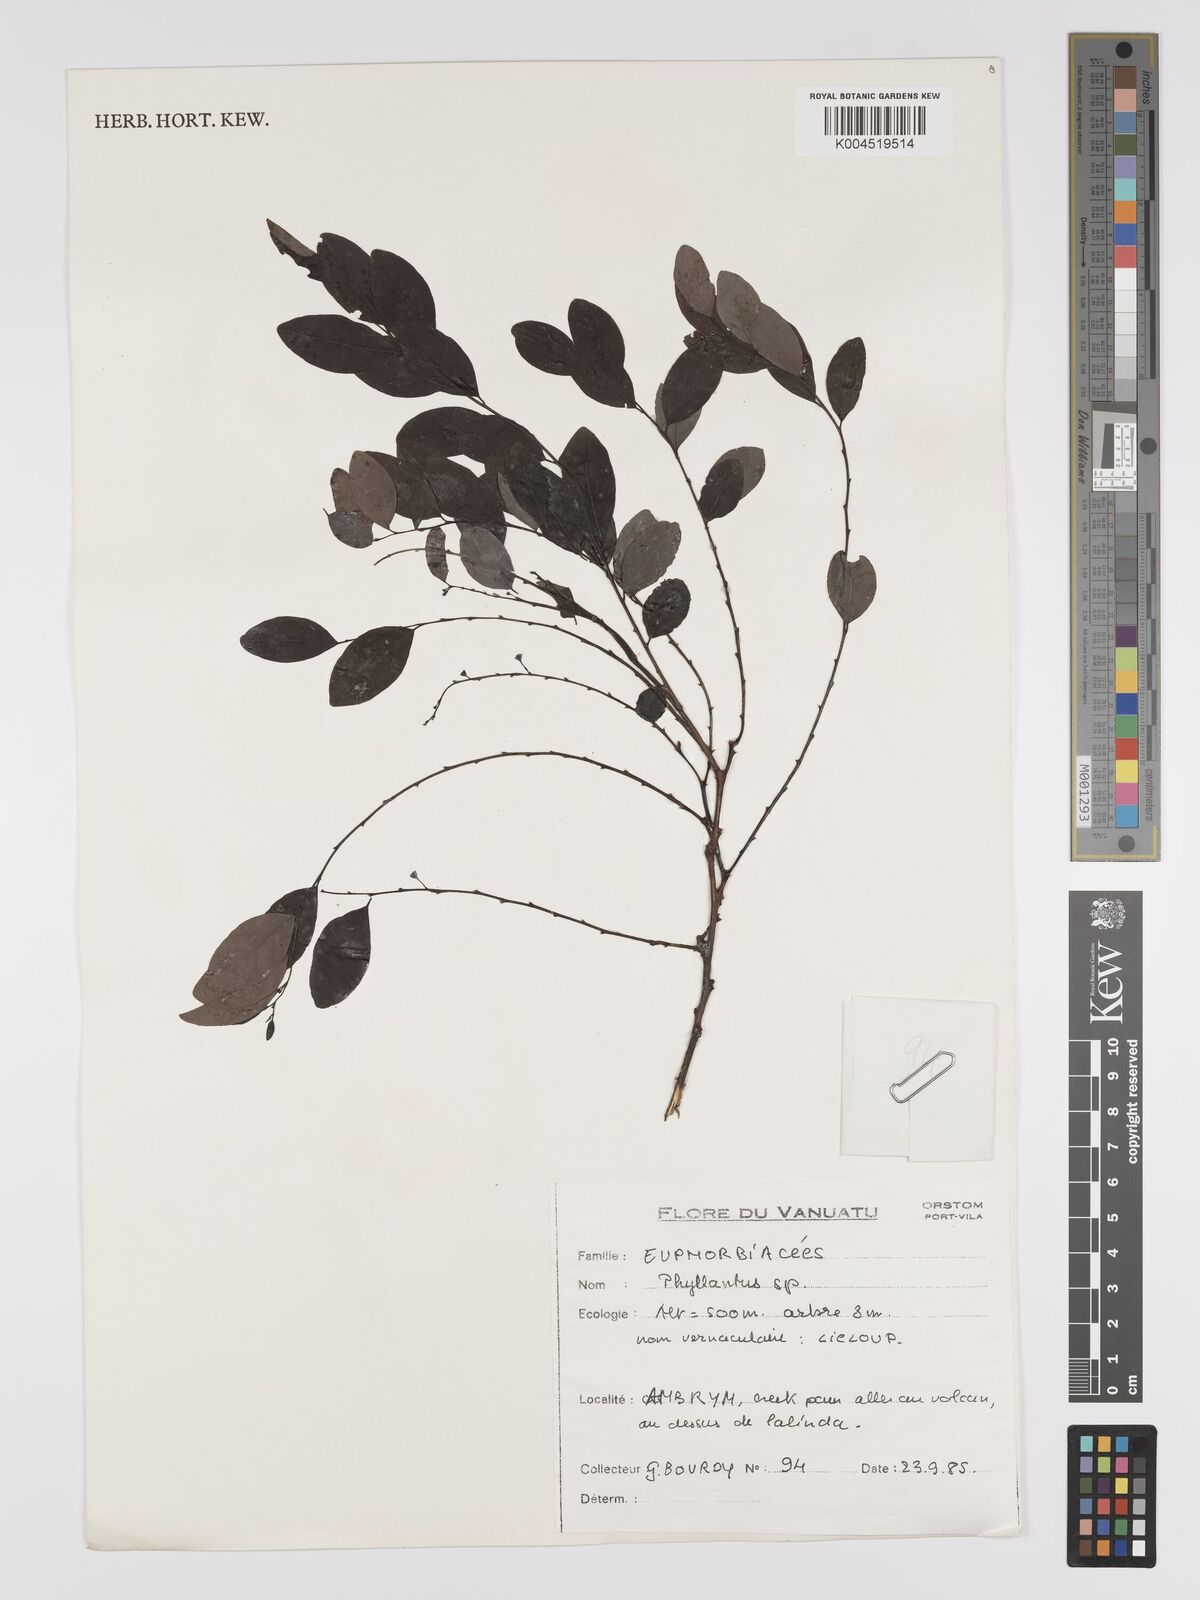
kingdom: Plantae
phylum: Tracheophyta
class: Magnoliopsida
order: Malpighiales
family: Phyllanthaceae
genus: Phyllanthus
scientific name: Phyllanthus
